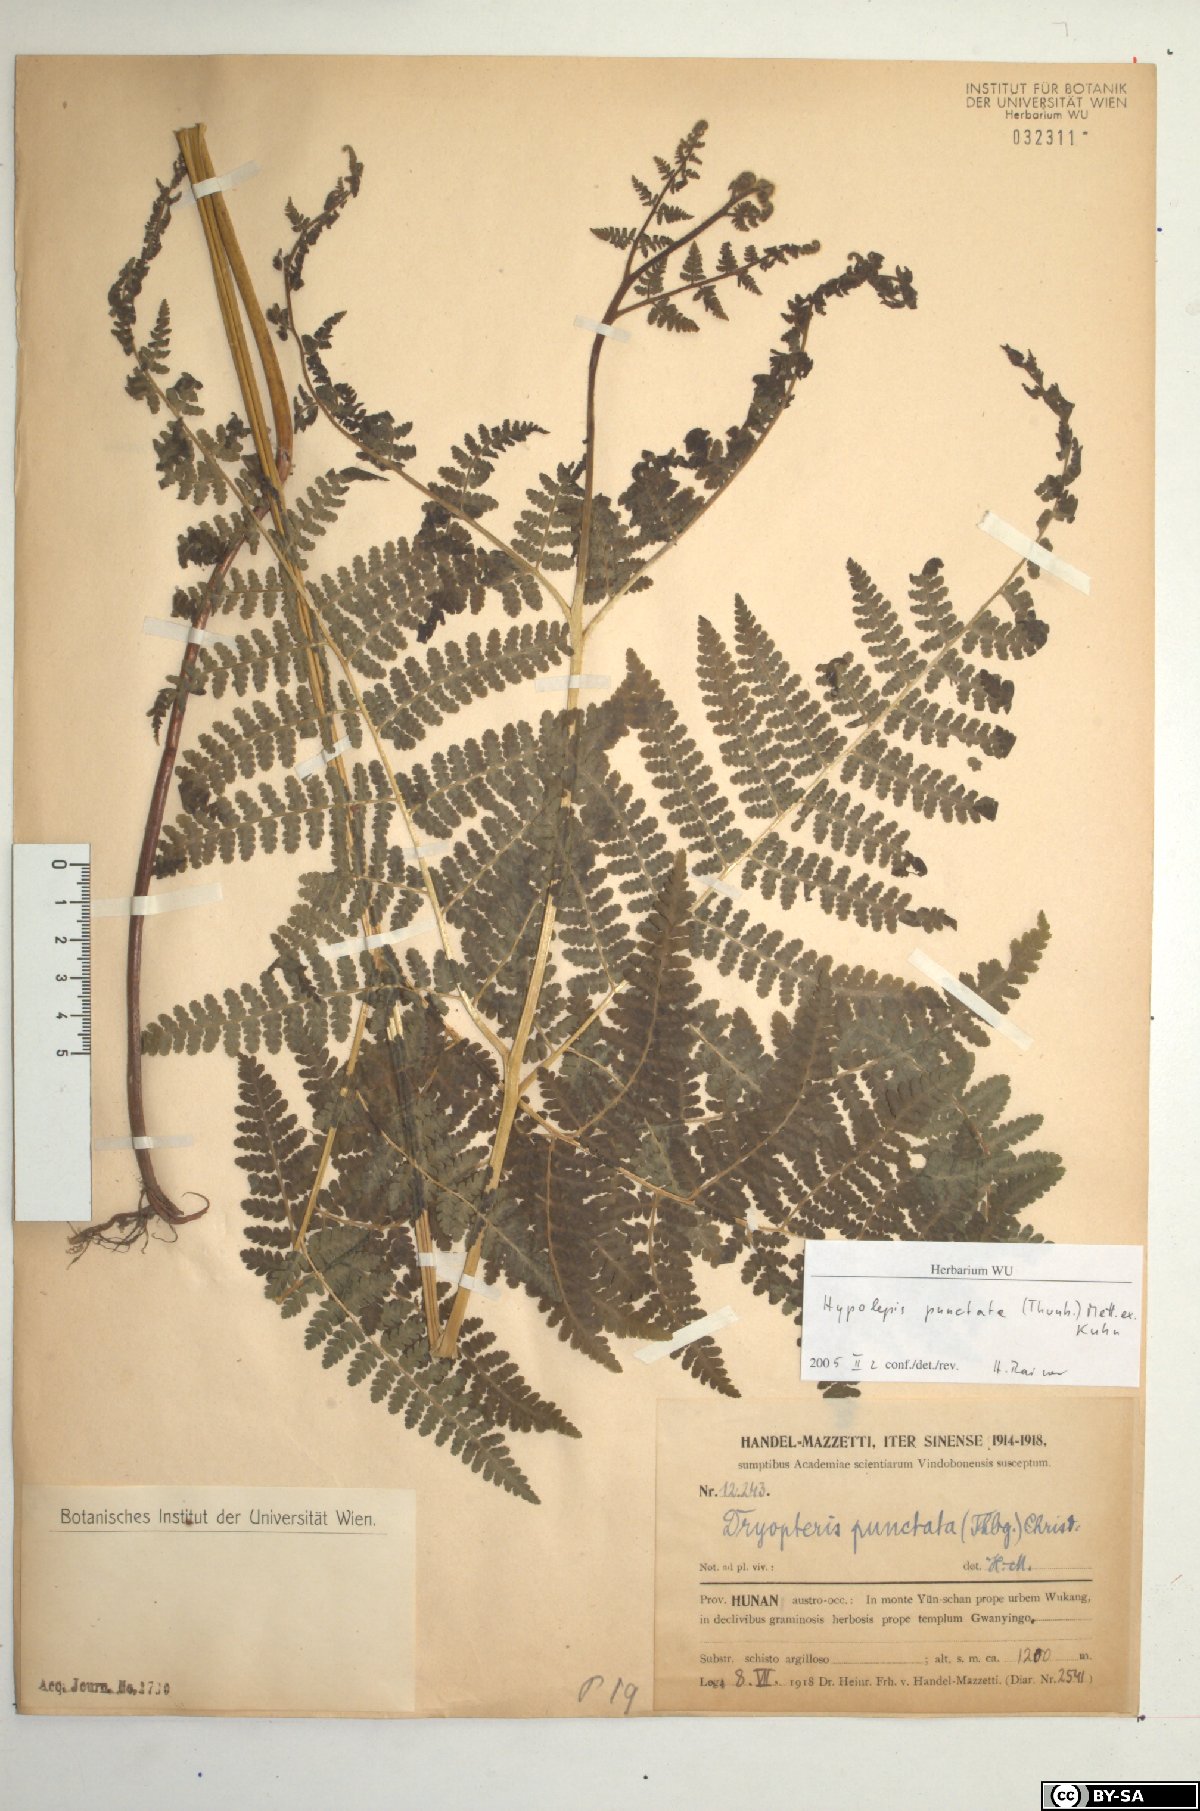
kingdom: Plantae
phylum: Tracheophyta
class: Polypodiopsida
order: Polypodiales
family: Dennstaedtiaceae
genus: Hypolepis
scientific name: Hypolepis punctata
